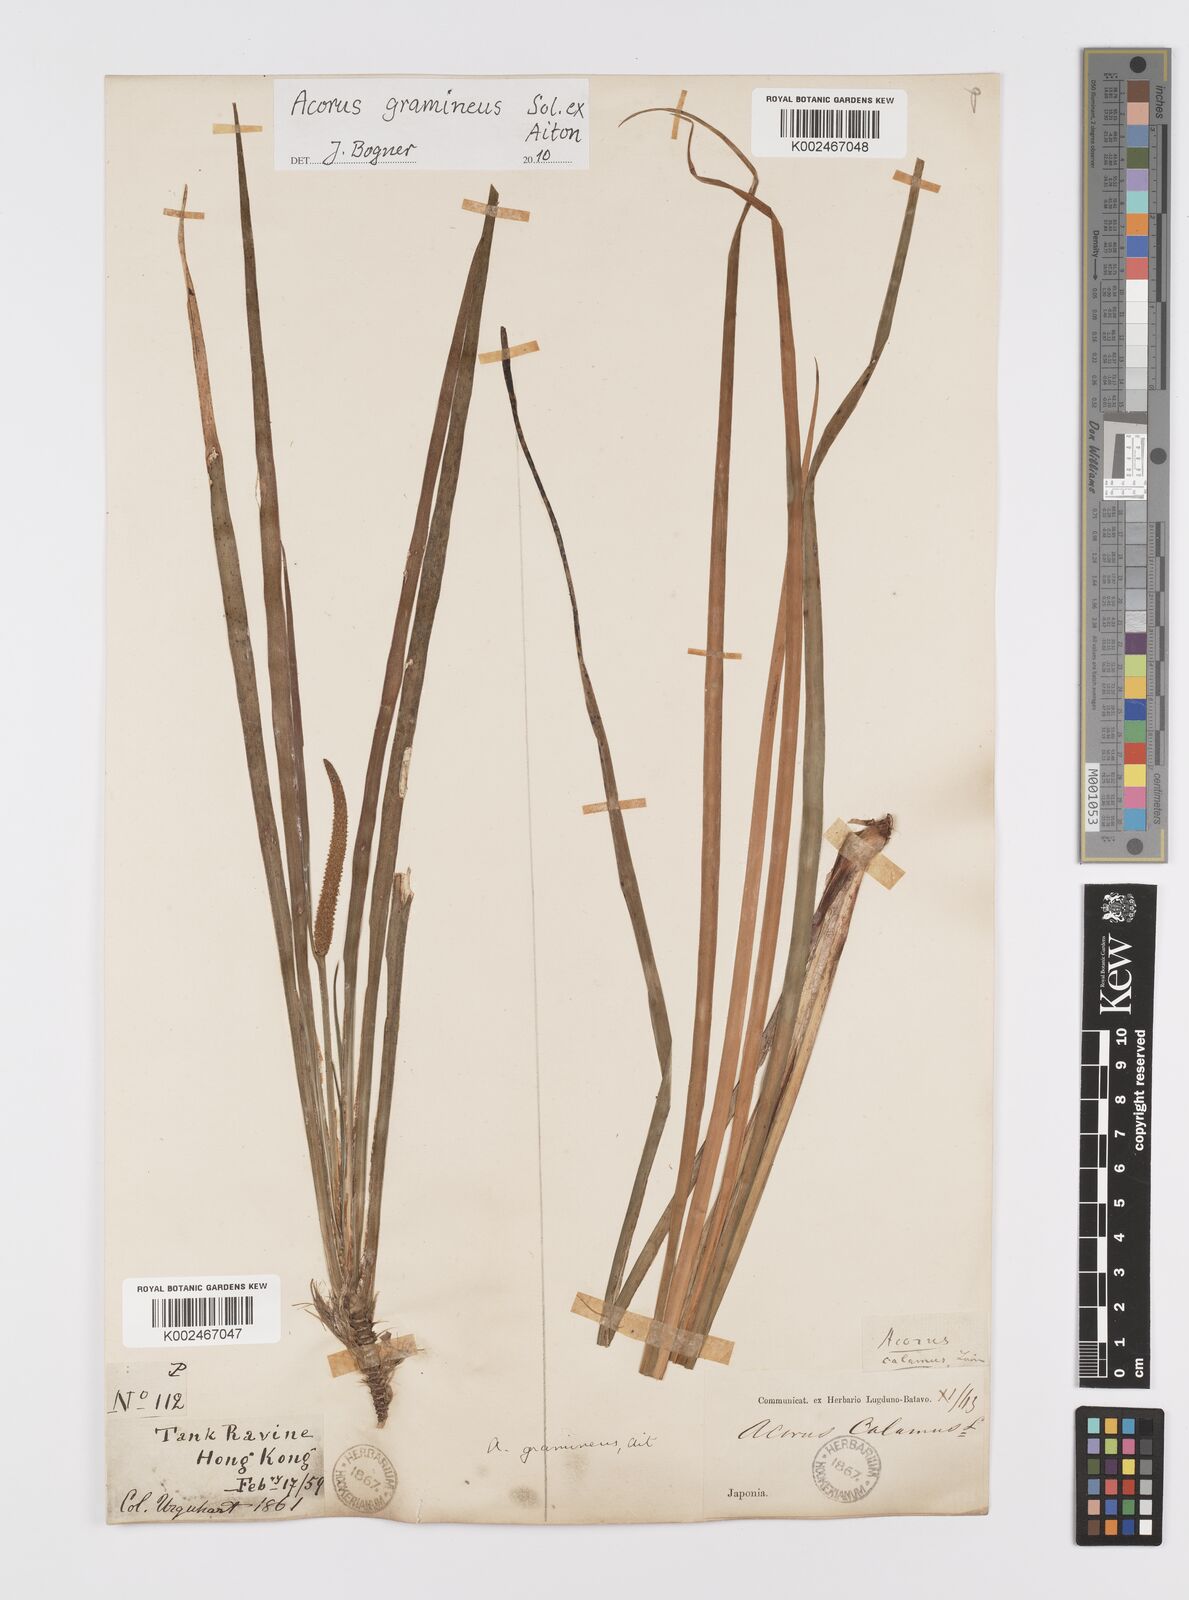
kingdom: Plantae
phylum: Tracheophyta
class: Liliopsida
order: Acorales
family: Acoraceae
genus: Acorus
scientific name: Acorus gramineus
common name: Slender sweet-flag
